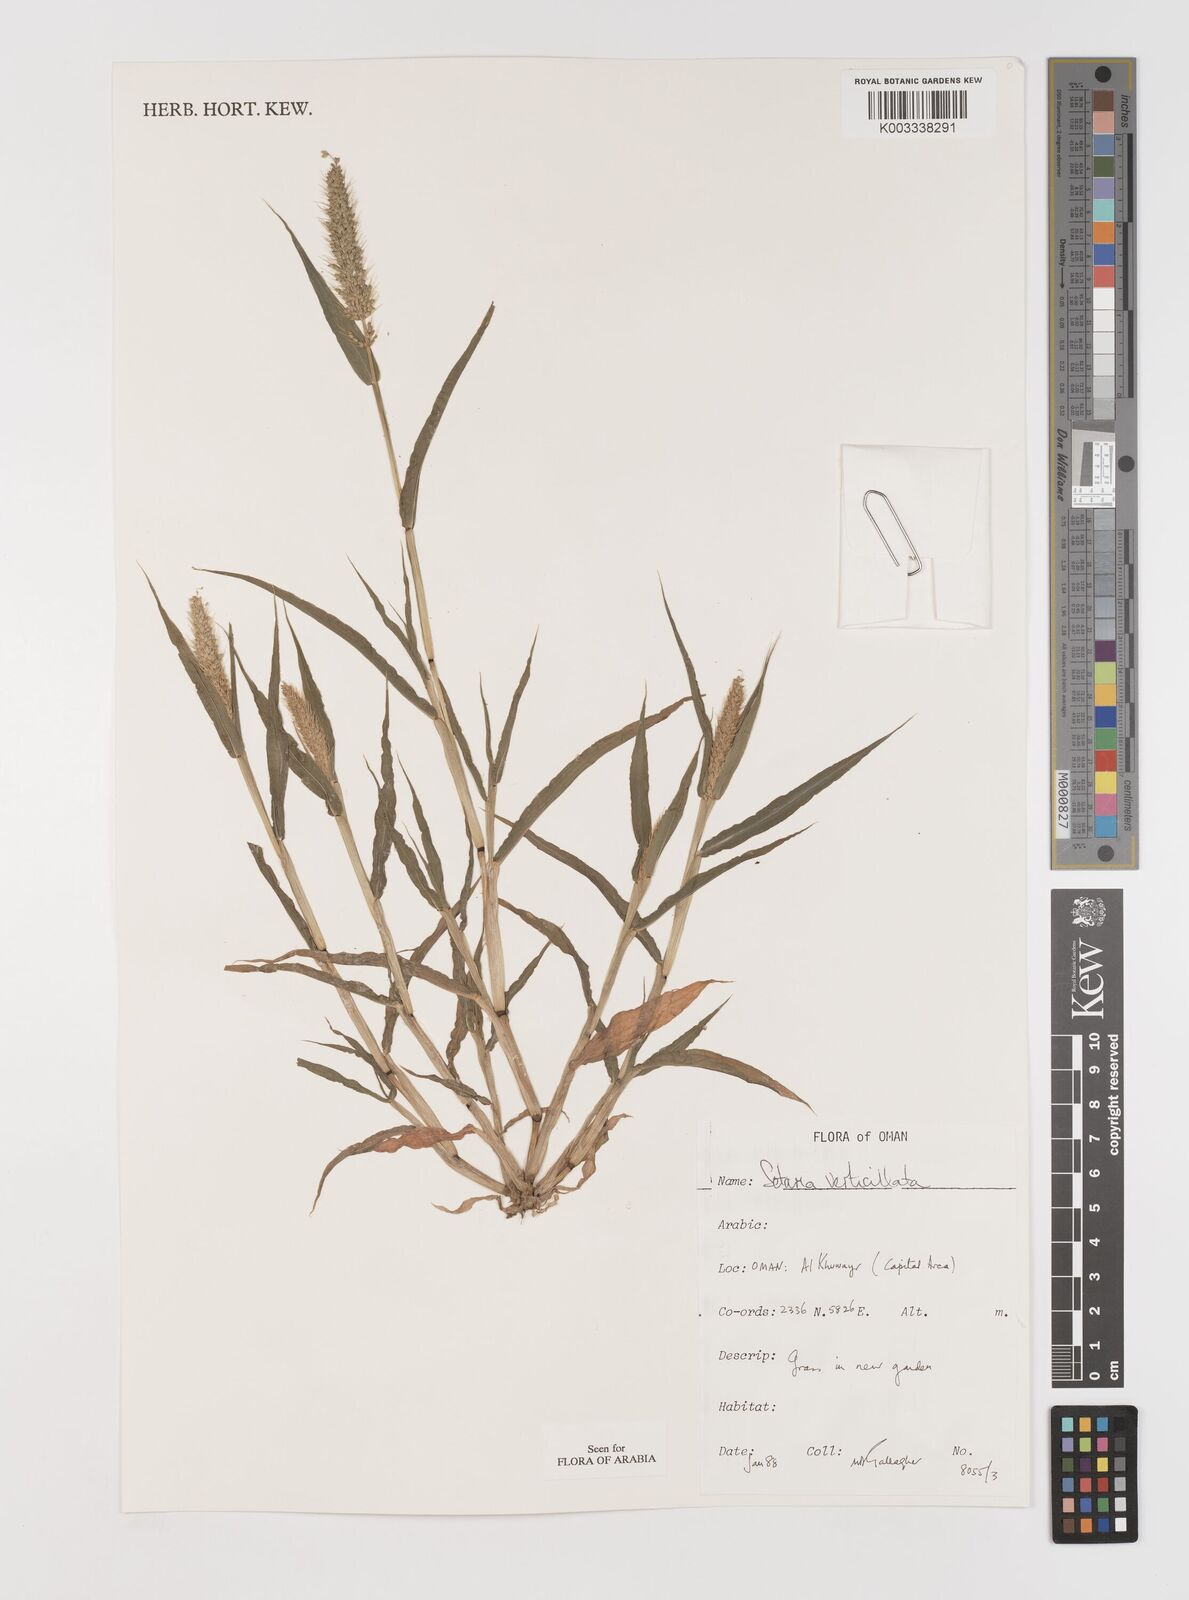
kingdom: Plantae
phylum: Tracheophyta
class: Liliopsida
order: Poales
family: Poaceae
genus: Setaria
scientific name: Setaria verticillata
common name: Hooked bristlegrass
